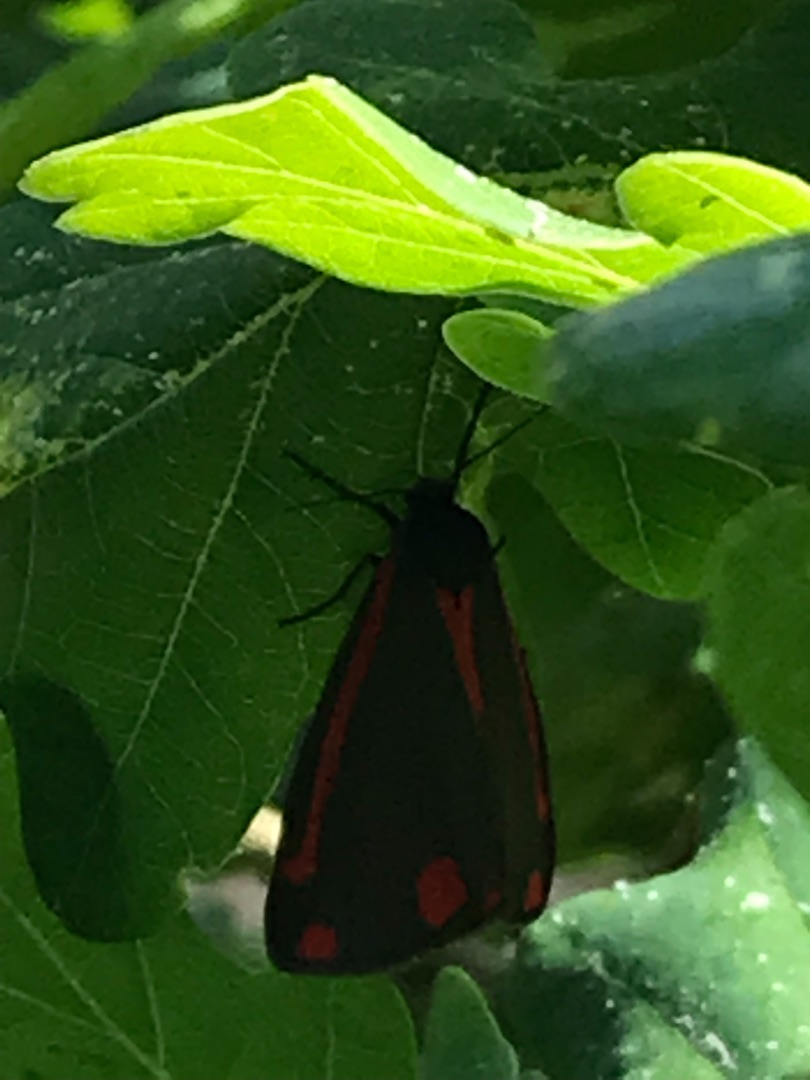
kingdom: Animalia
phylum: Arthropoda
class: Insecta
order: Lepidoptera
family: Erebidae
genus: Tyria
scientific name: Tyria jacobaeae
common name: Blodplet
